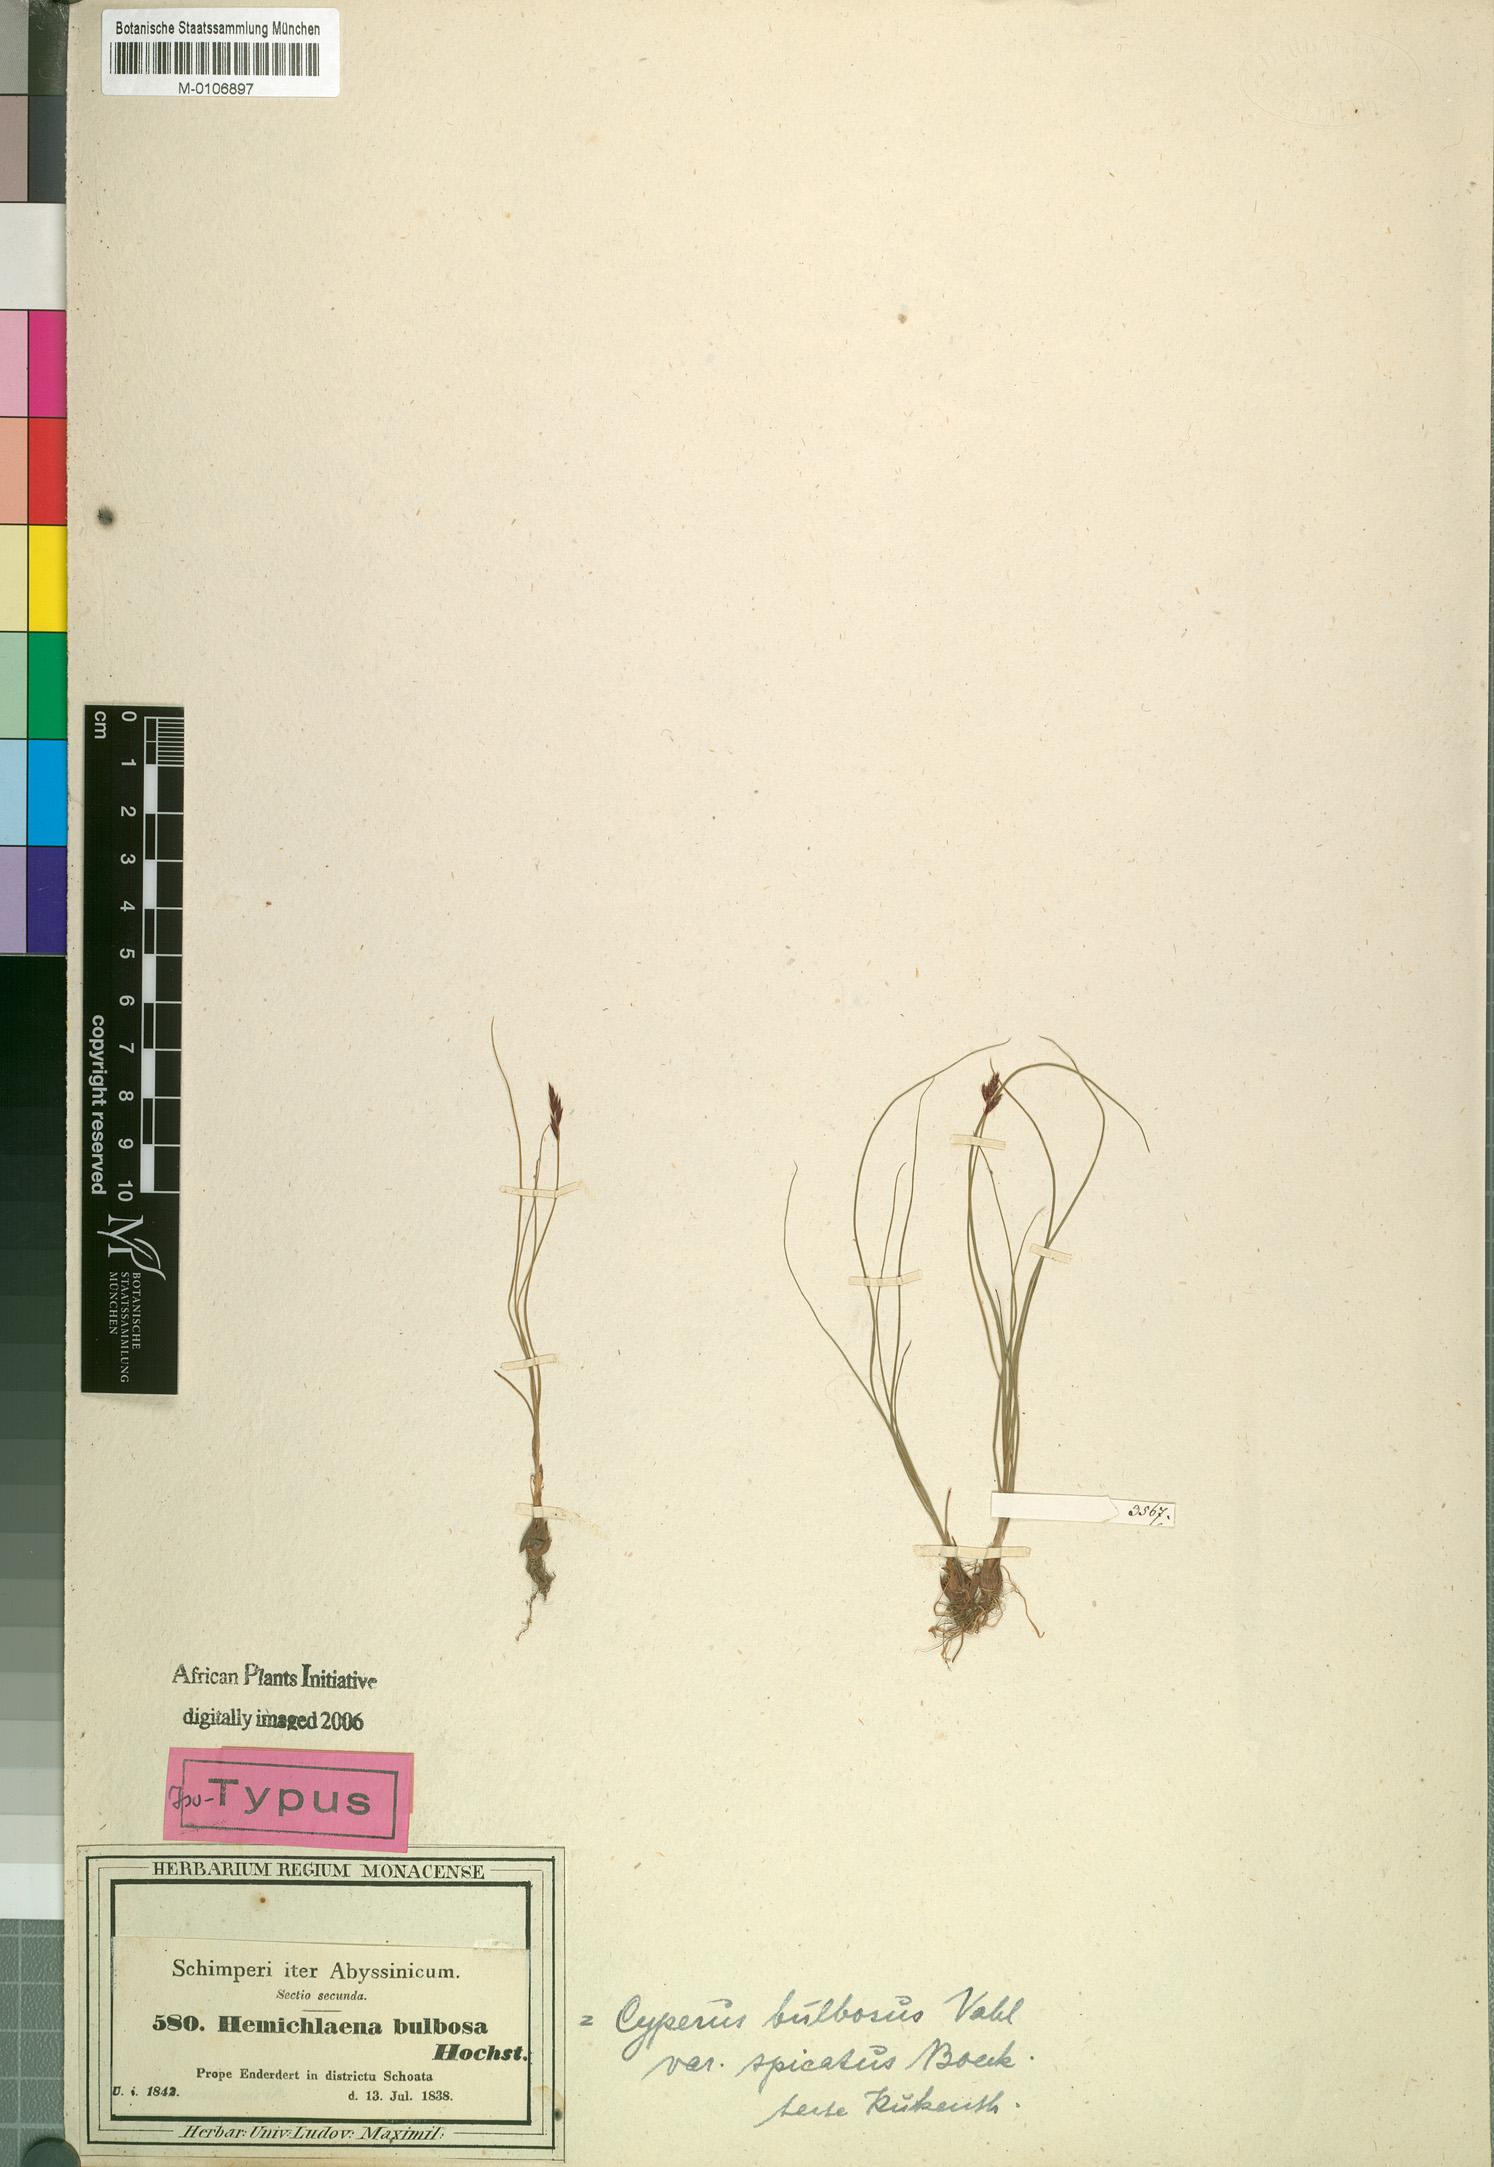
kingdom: Plantae
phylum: Tracheophyta
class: Liliopsida
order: Poales
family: Cyperaceae
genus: Cyperus
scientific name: Cyperus blysmoides
